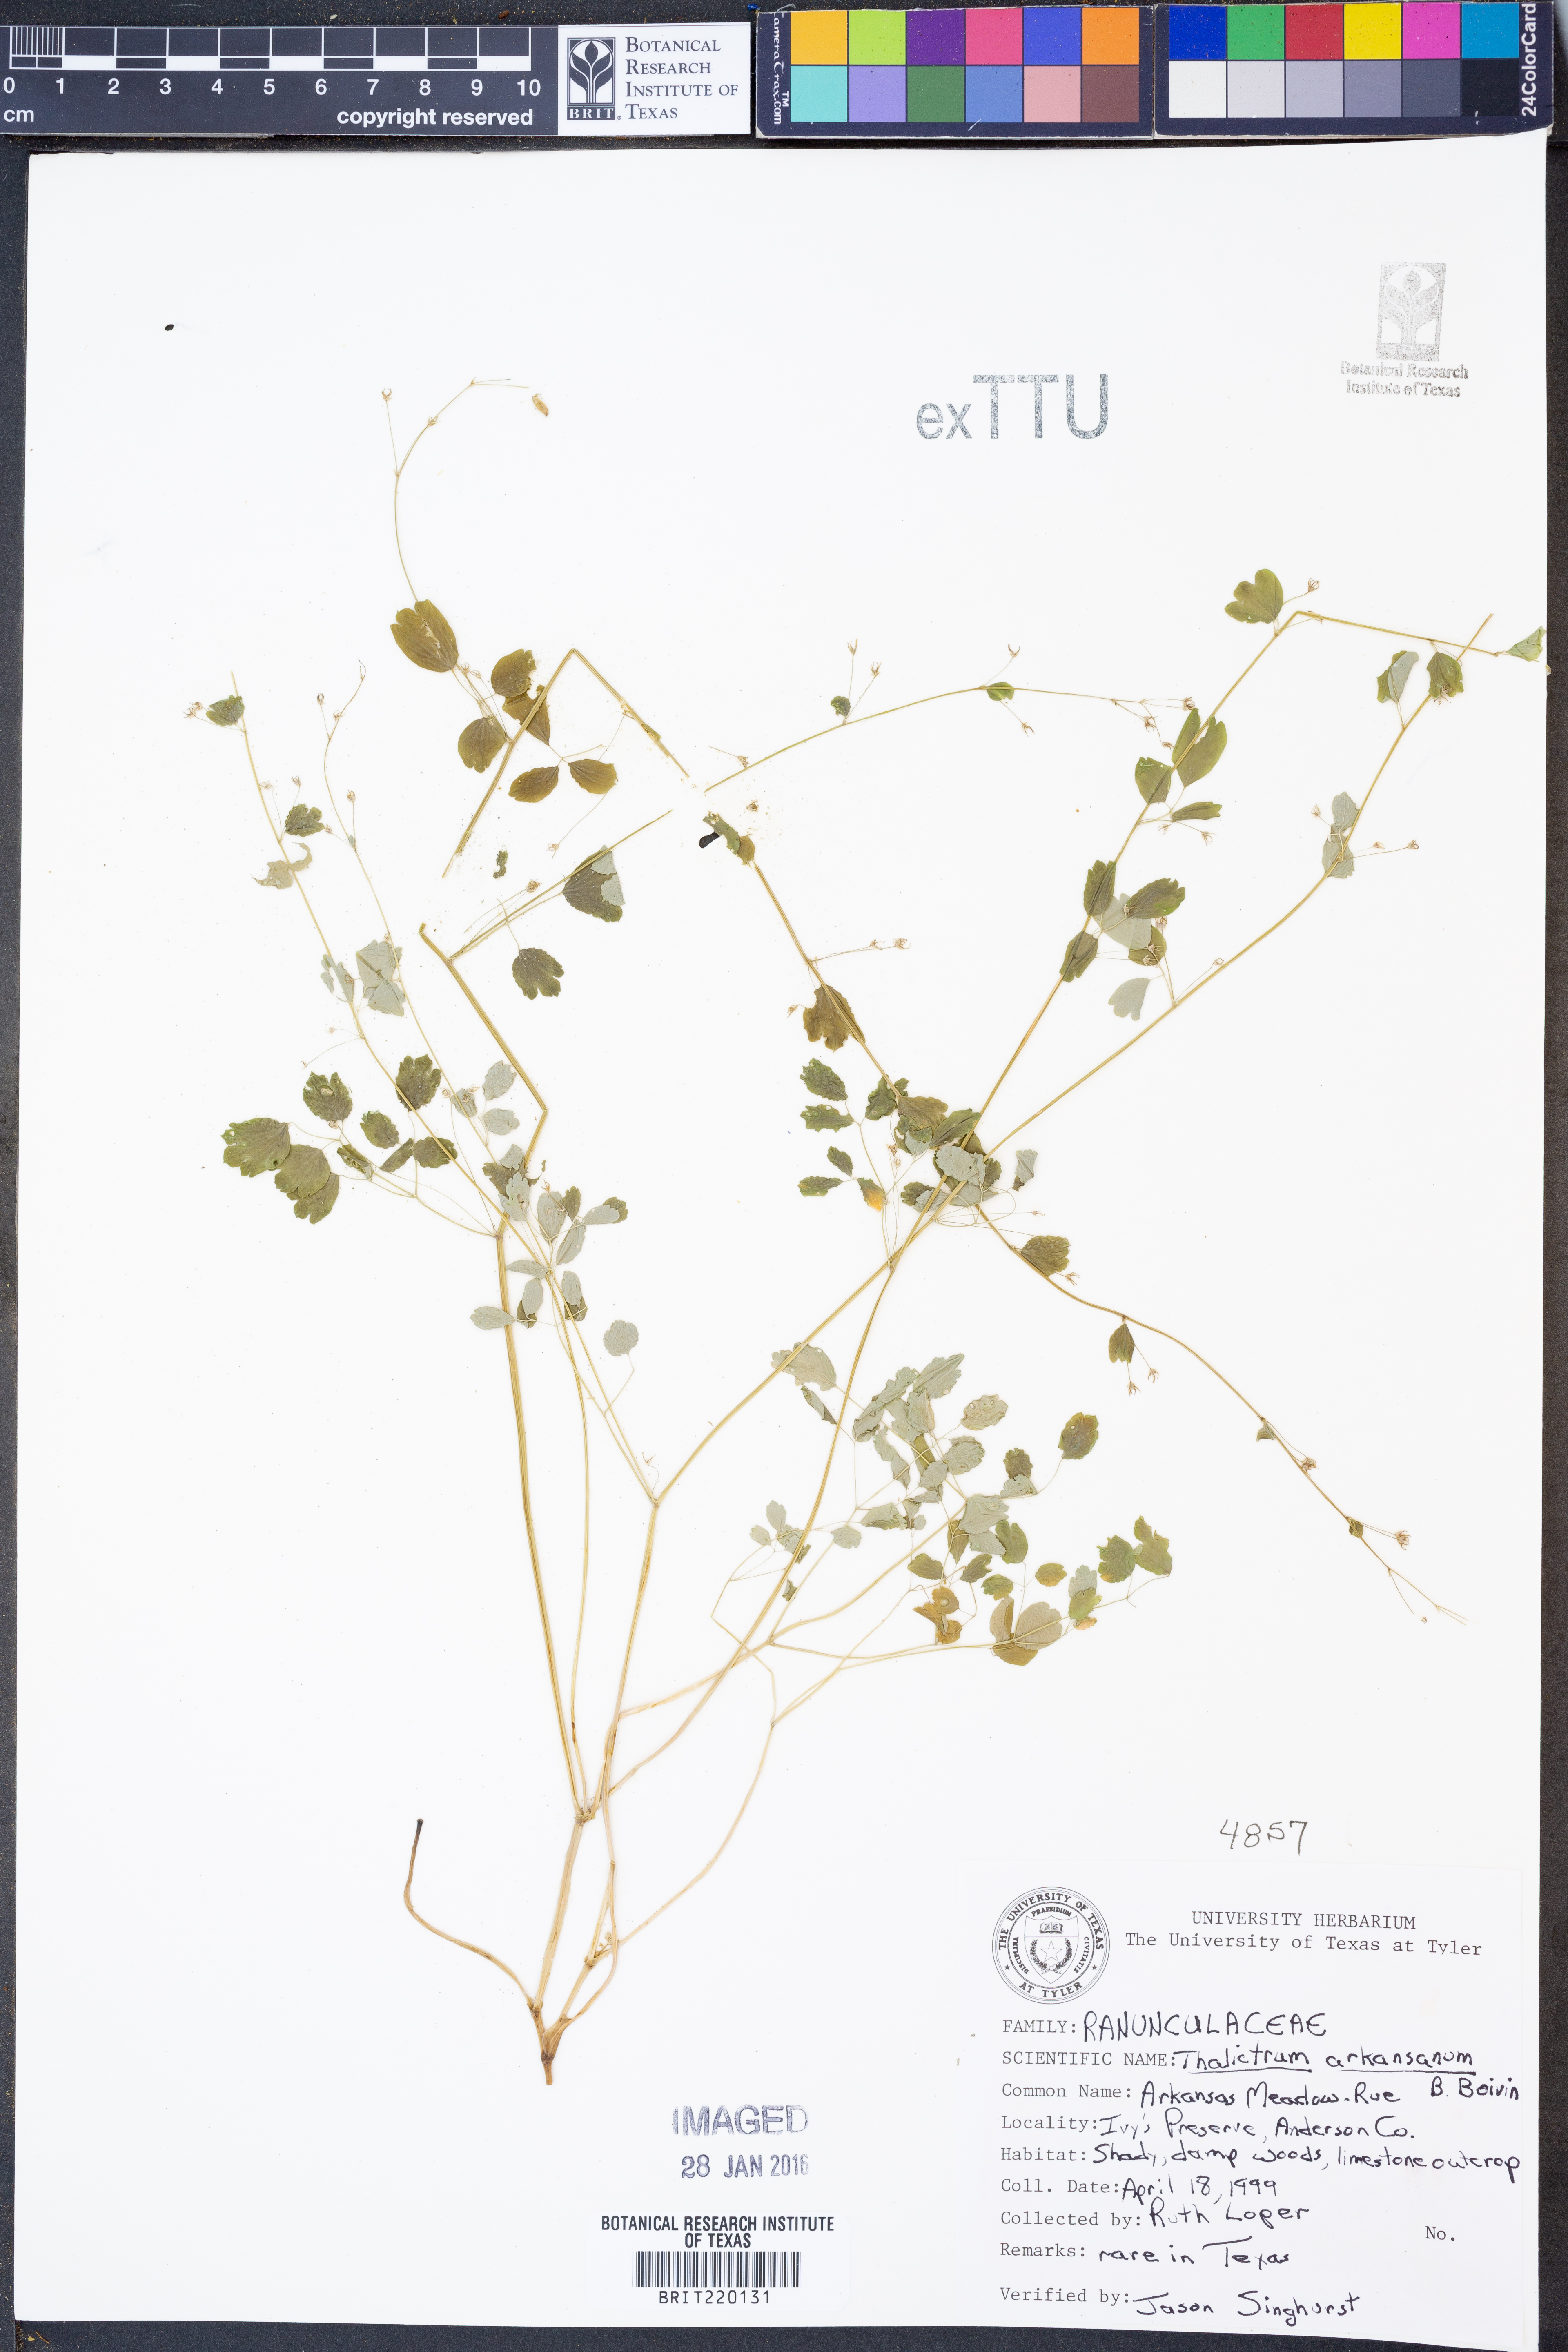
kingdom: Plantae
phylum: Tracheophyta
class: Magnoliopsida
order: Ranunculales
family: Ranunculaceae
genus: Thalictrum
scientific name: Thalictrum arkansanum
